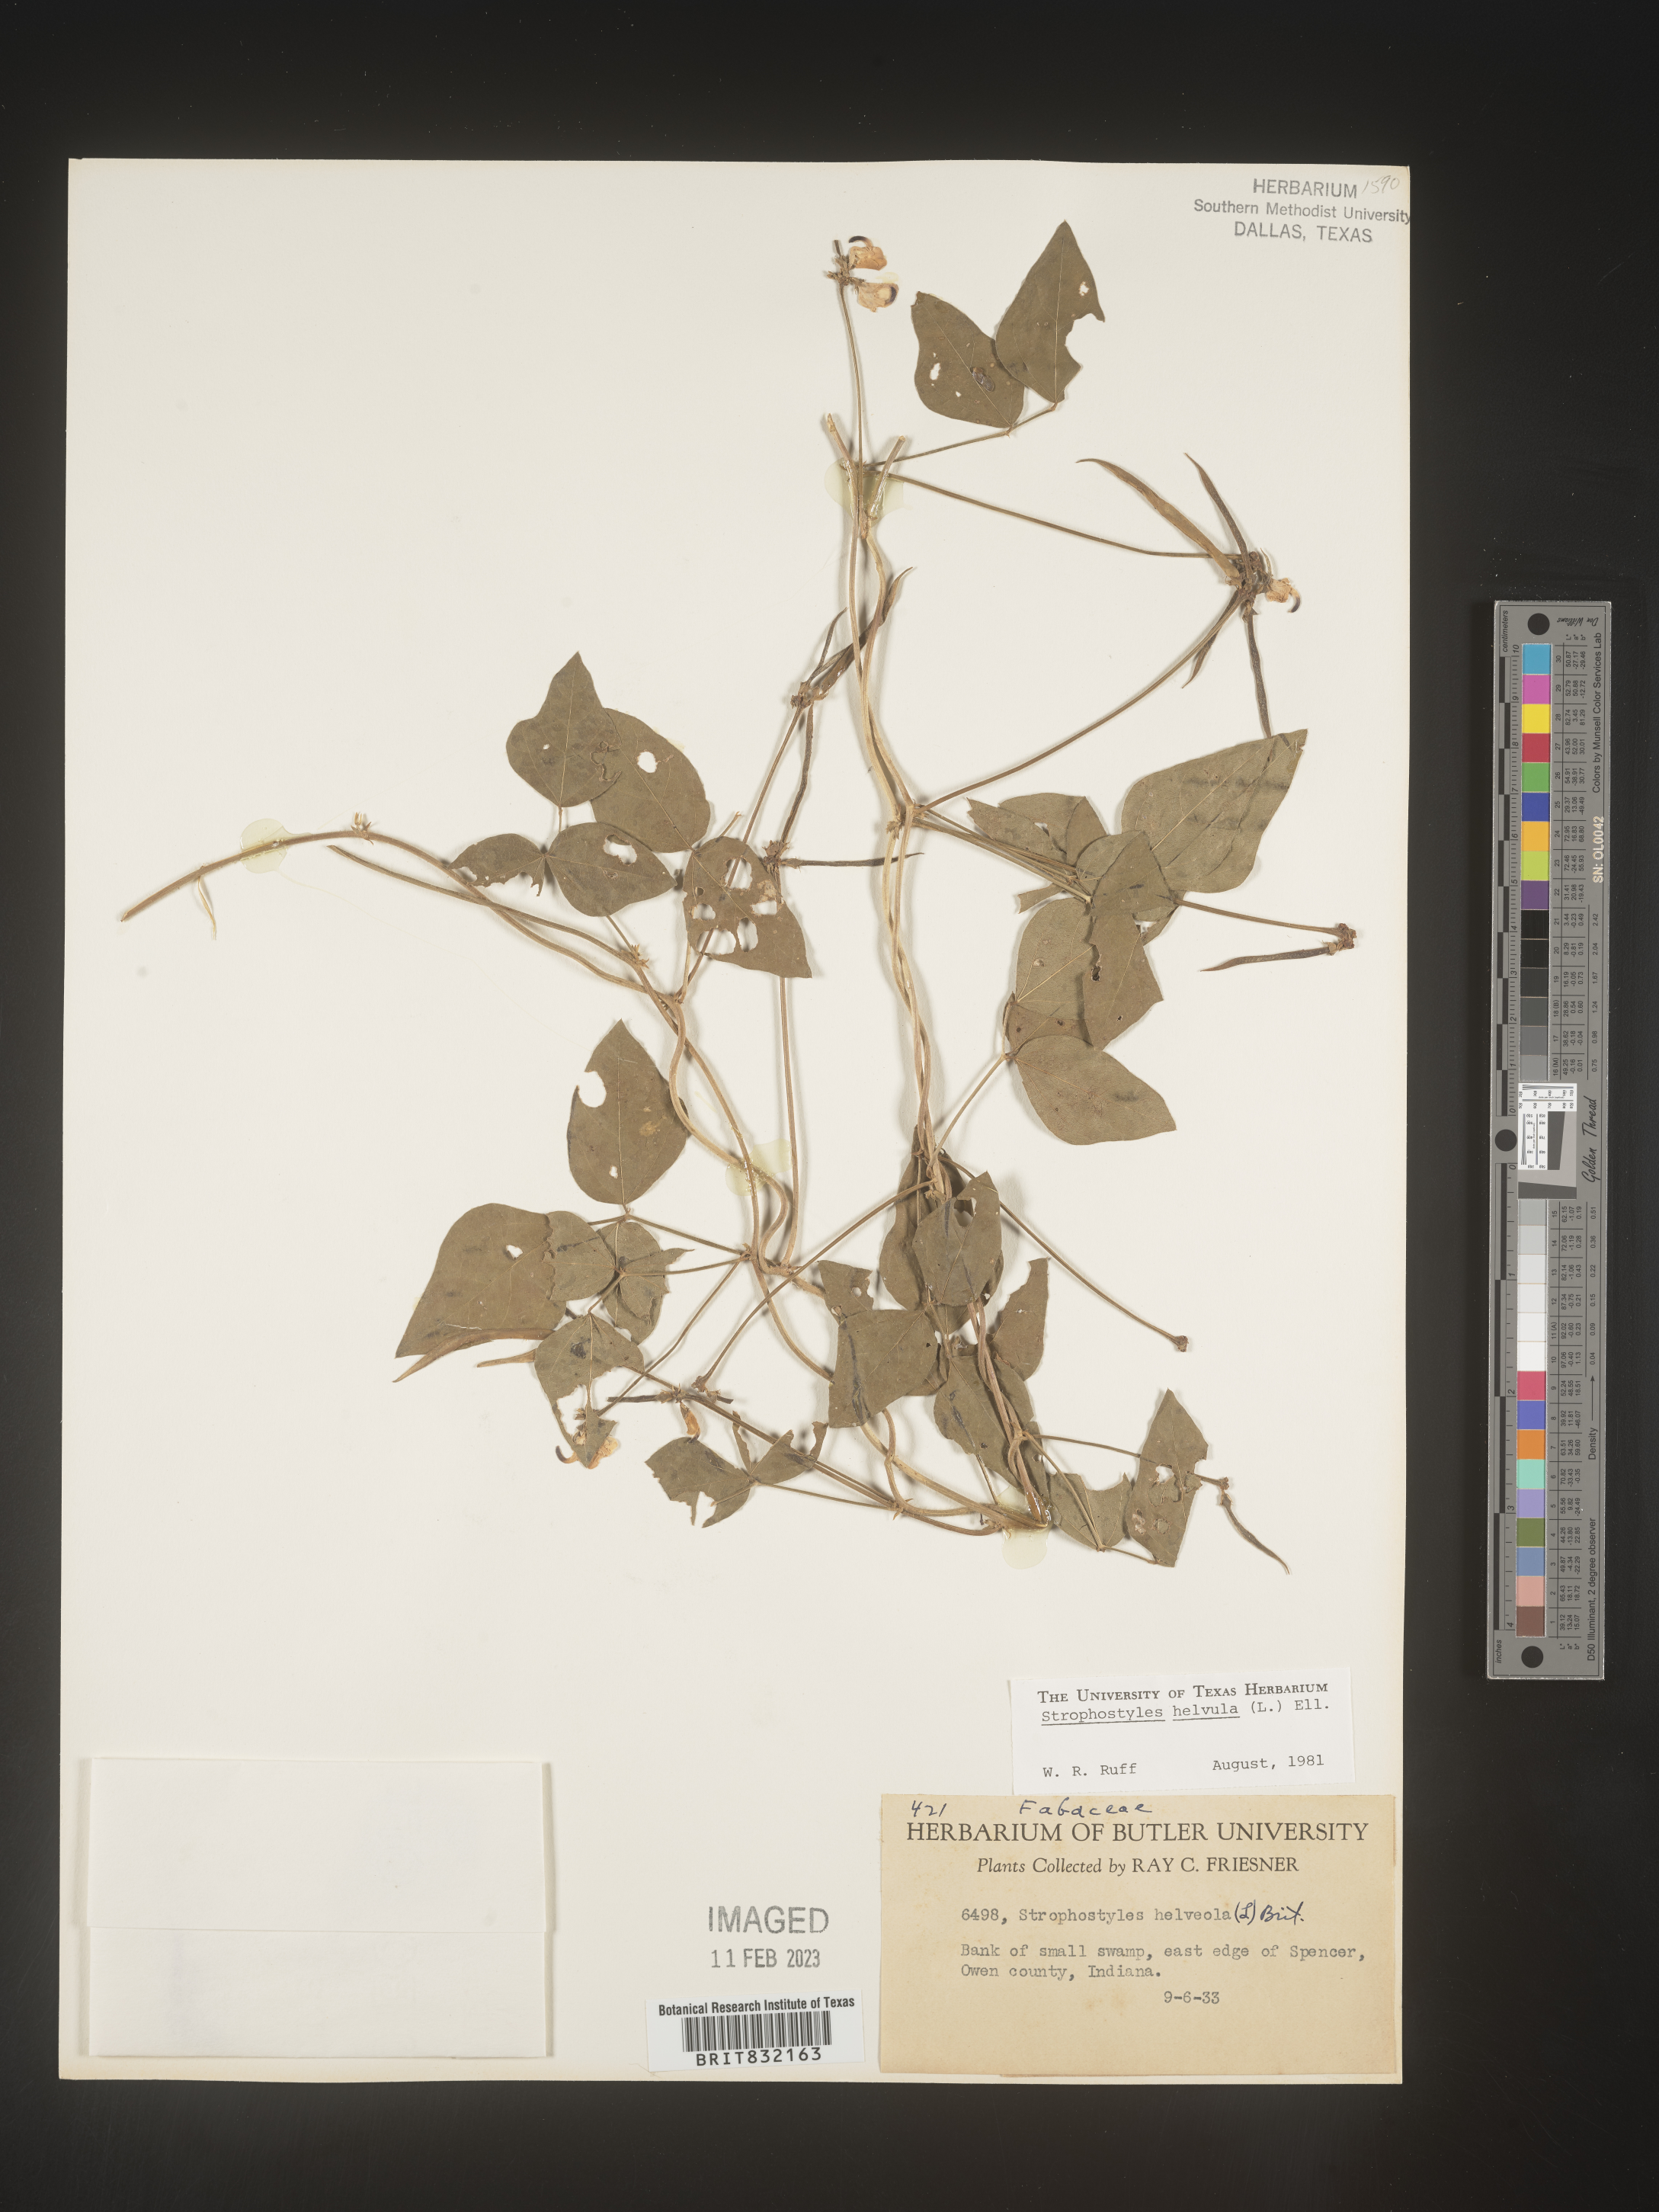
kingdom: Plantae
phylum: Tracheophyta
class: Magnoliopsida
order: Fabales
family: Fabaceae
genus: Strophostyles
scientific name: Strophostyles helvola
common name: Trailing wild bean
